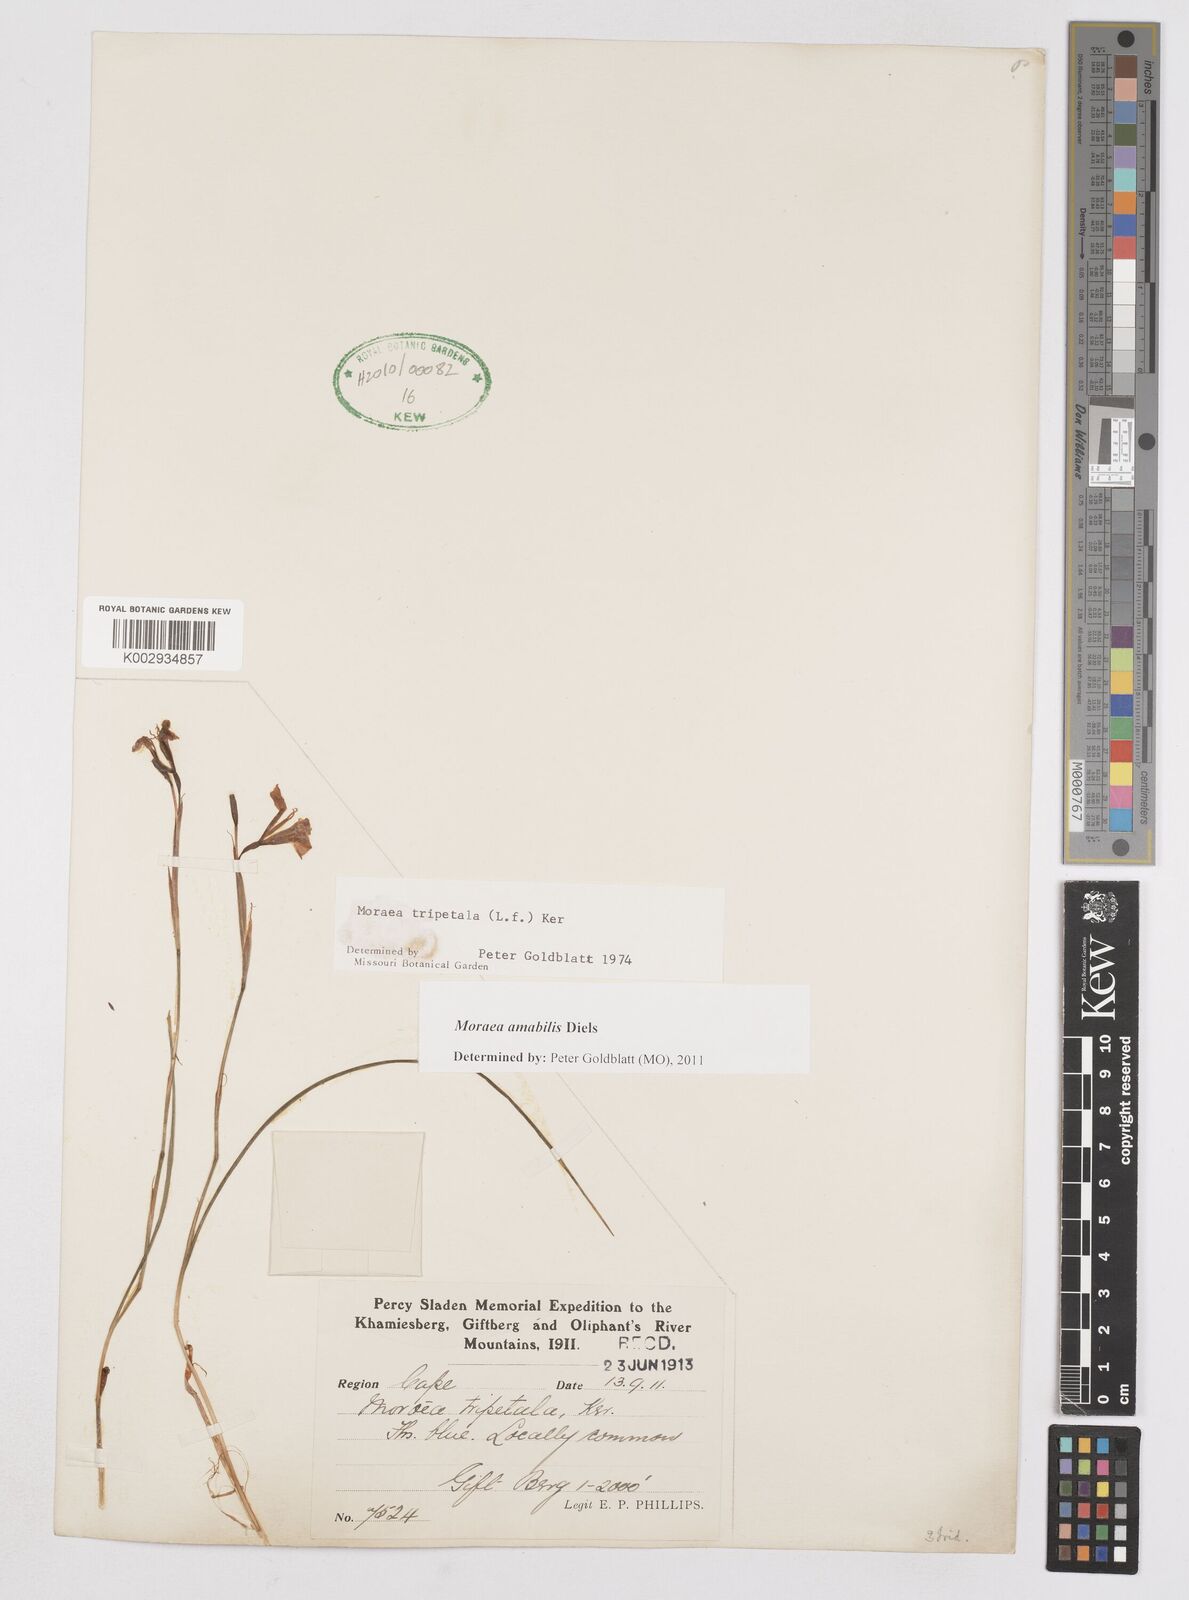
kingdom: Plantae
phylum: Tracheophyta
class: Liliopsida
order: Asparagales
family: Iridaceae
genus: Moraea
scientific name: Moraea amabilis
